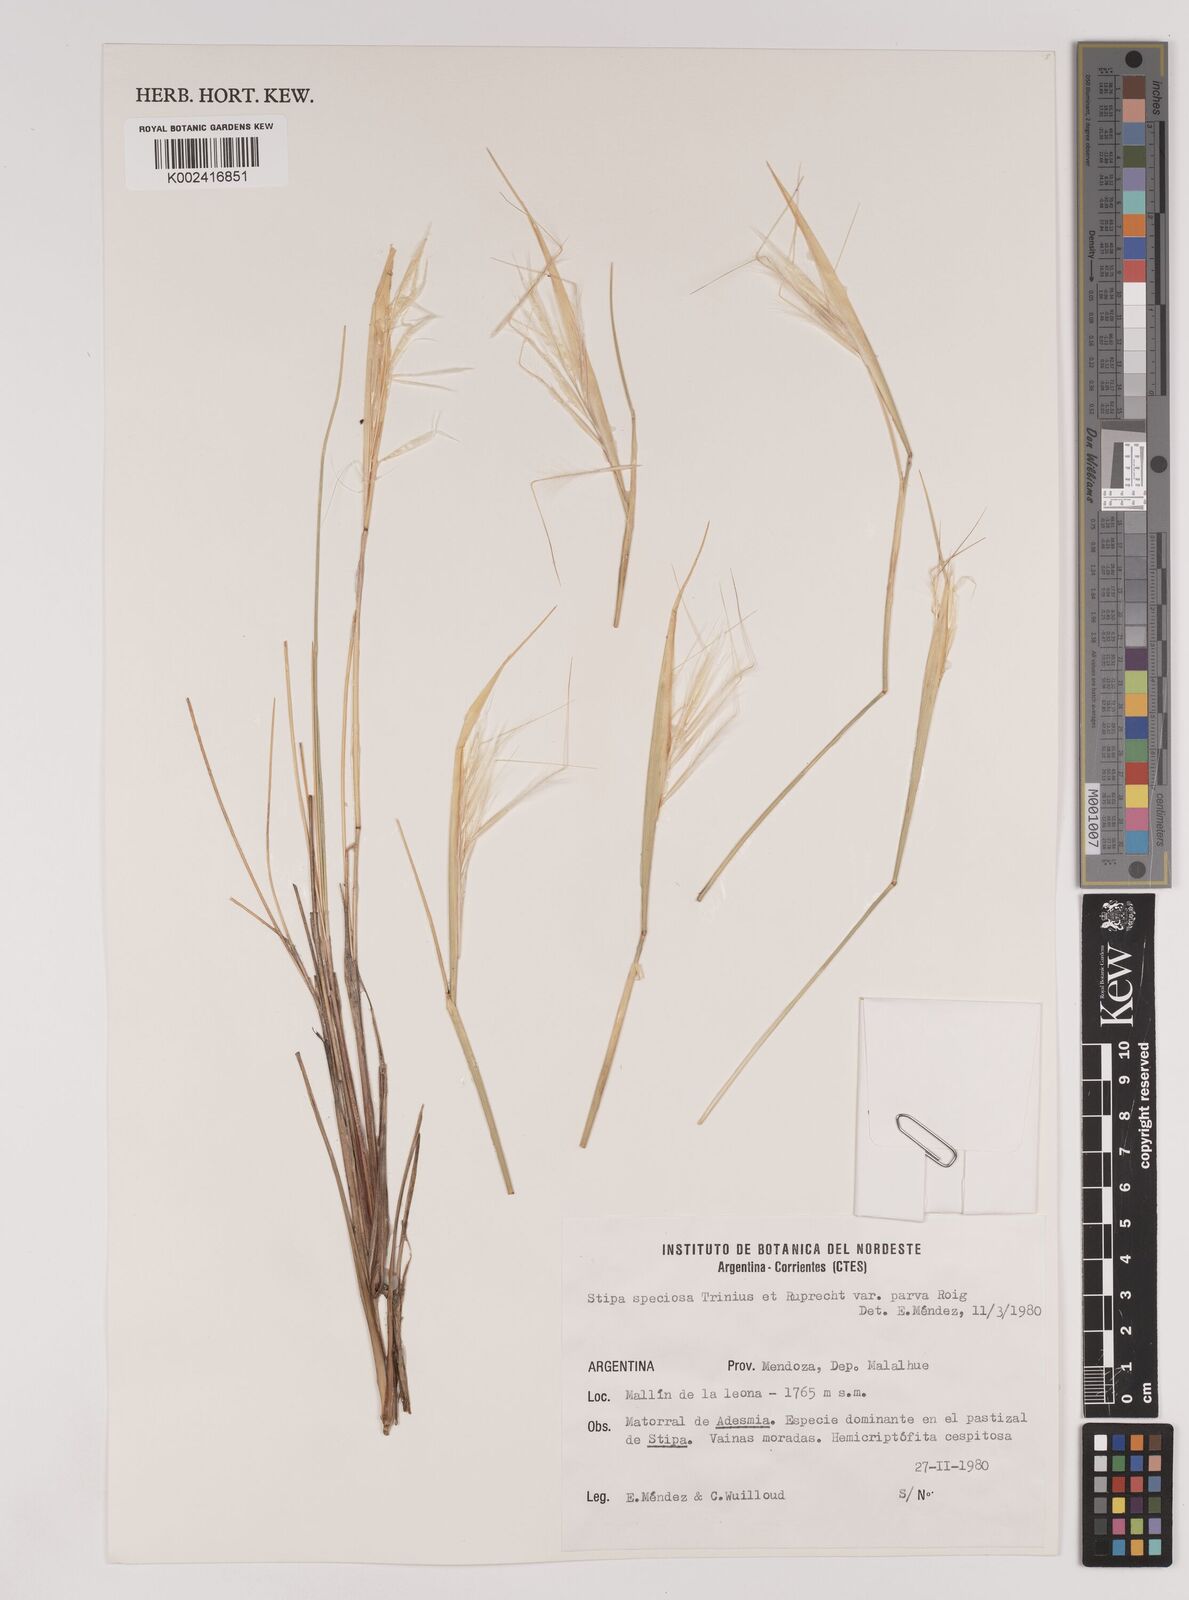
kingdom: Plantae
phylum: Tracheophyta
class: Liliopsida
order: Poales
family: Poaceae
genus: Pappostipa
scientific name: Pappostipa speciosa
